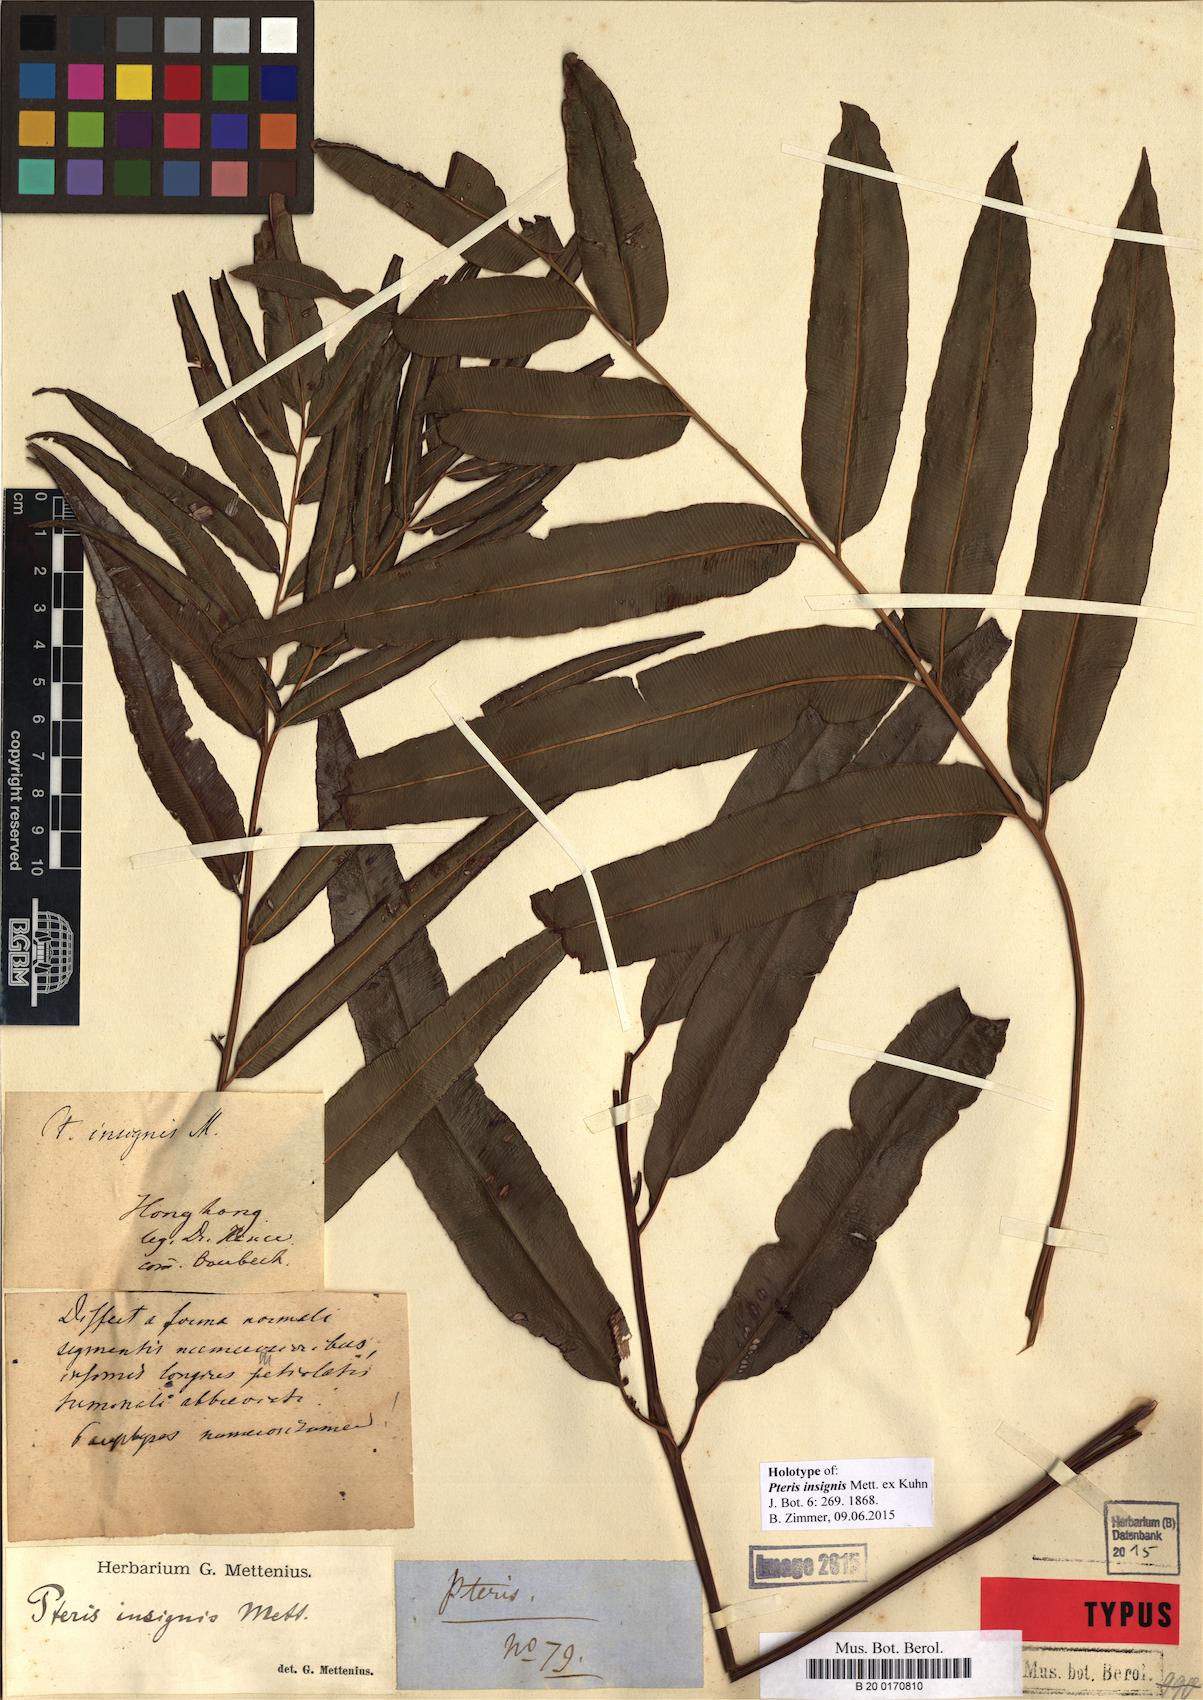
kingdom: Plantae
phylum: Tracheophyta
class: Polypodiopsida
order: Polypodiales
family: Pteridaceae
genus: Pteris
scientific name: Pteris platysora
